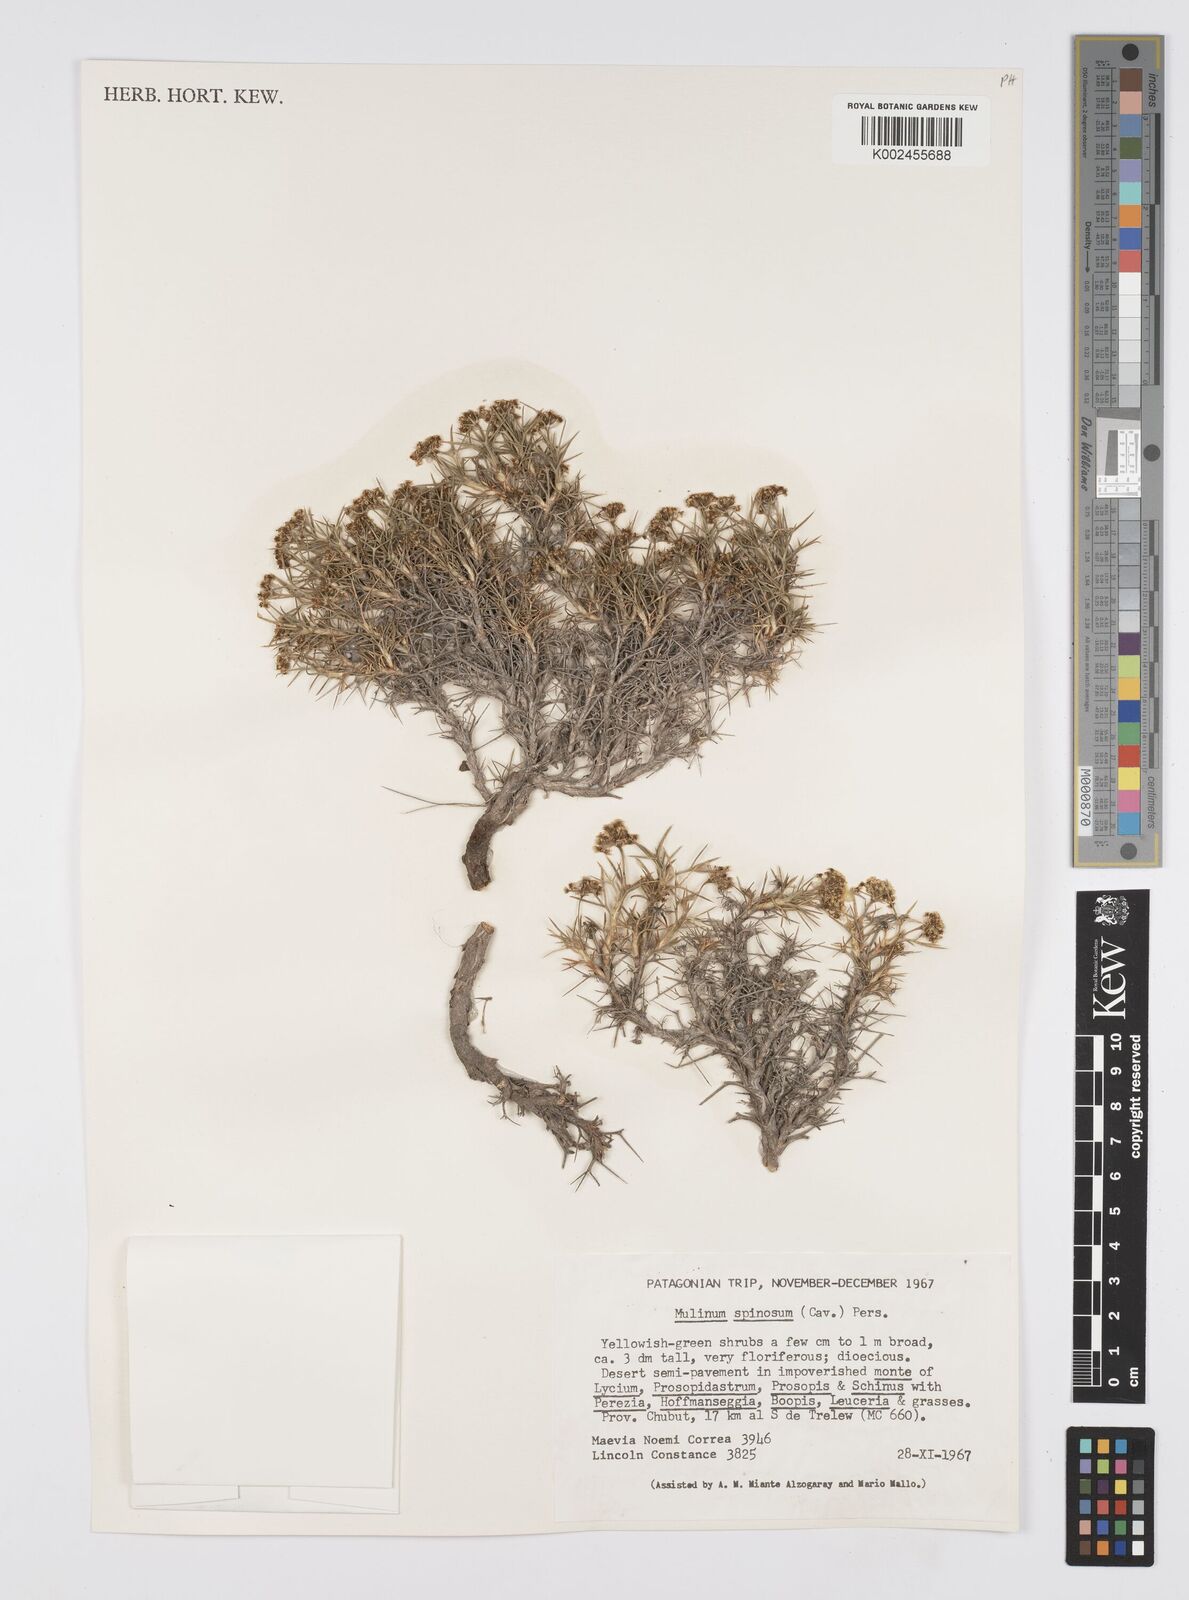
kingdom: Plantae
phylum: Tracheophyta
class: Magnoliopsida
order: Apiales
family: Apiaceae
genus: Azorella
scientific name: Azorella prolifera
